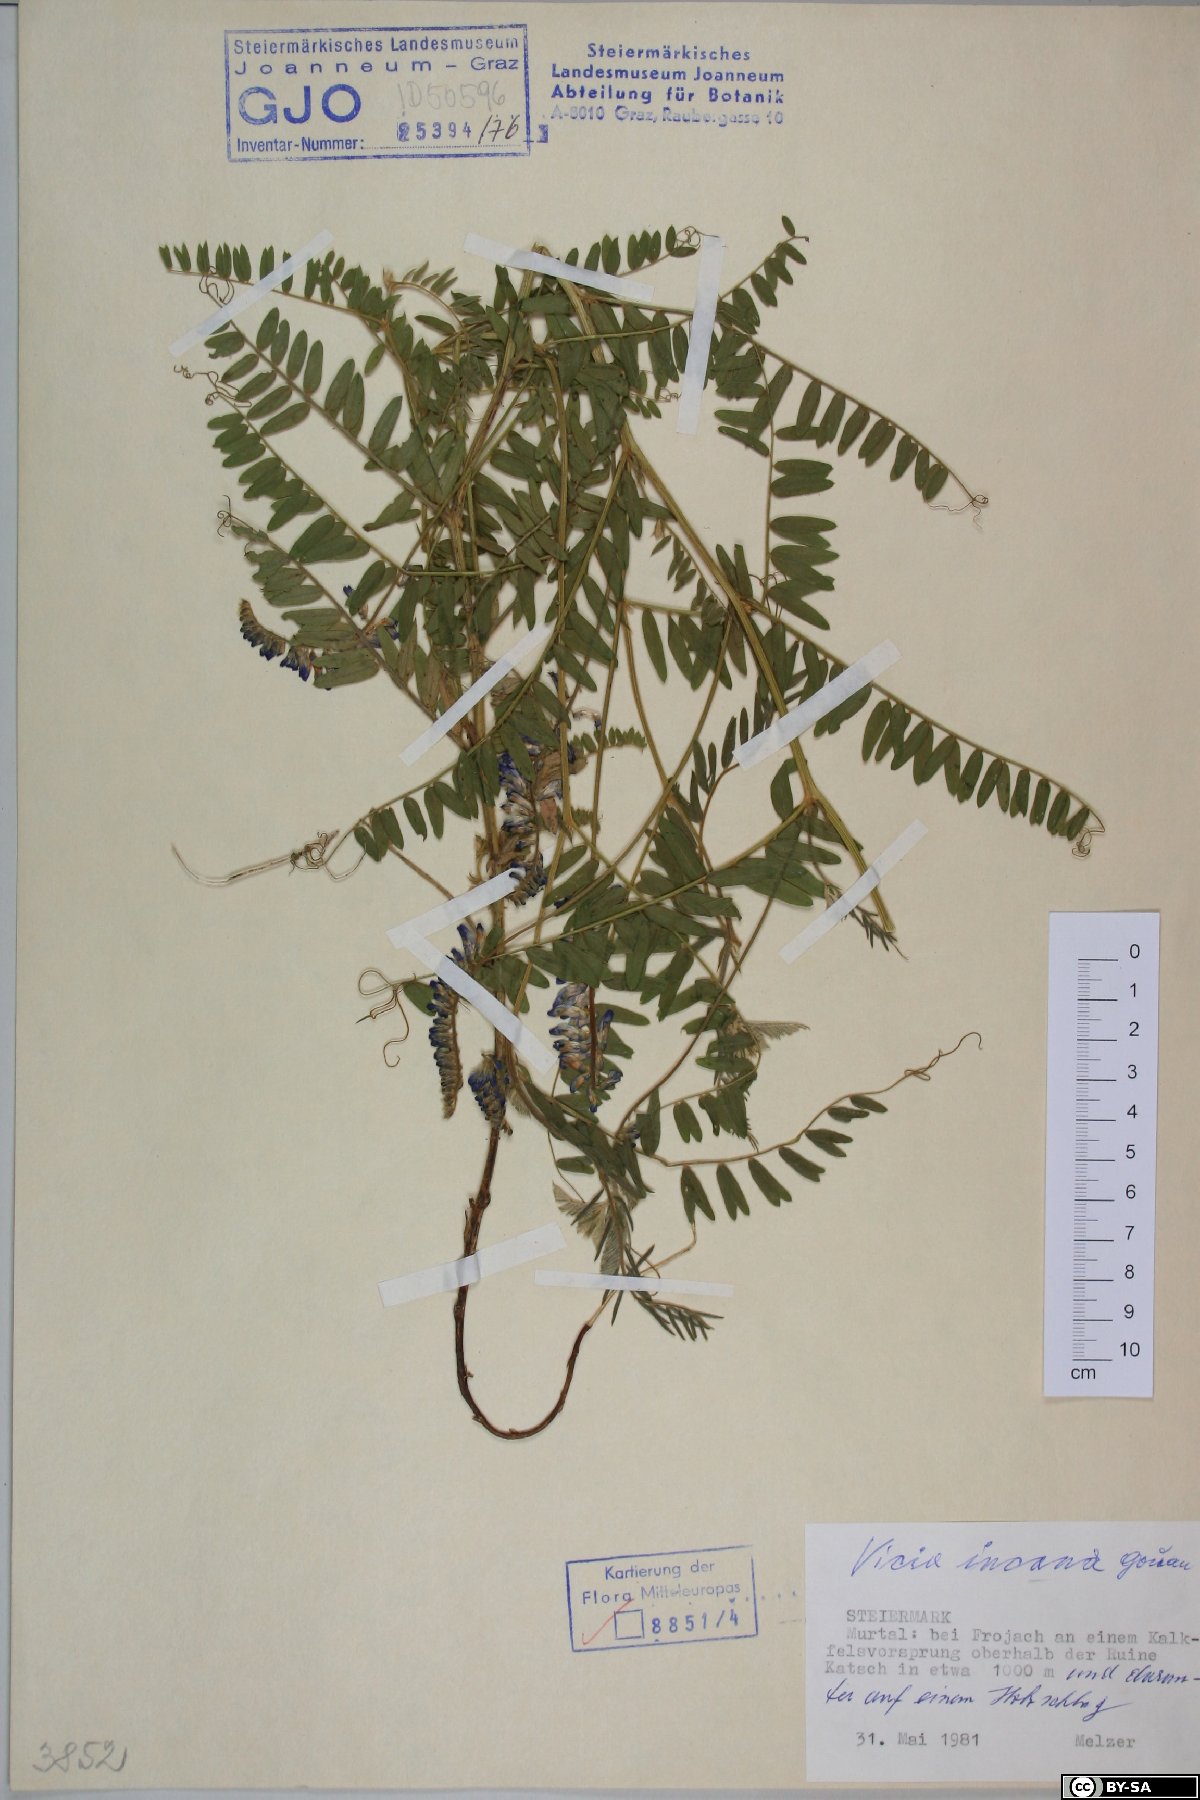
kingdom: Plantae
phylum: Tracheophyta
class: Magnoliopsida
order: Fabales
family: Fabaceae
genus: Vicia
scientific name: Vicia incana
